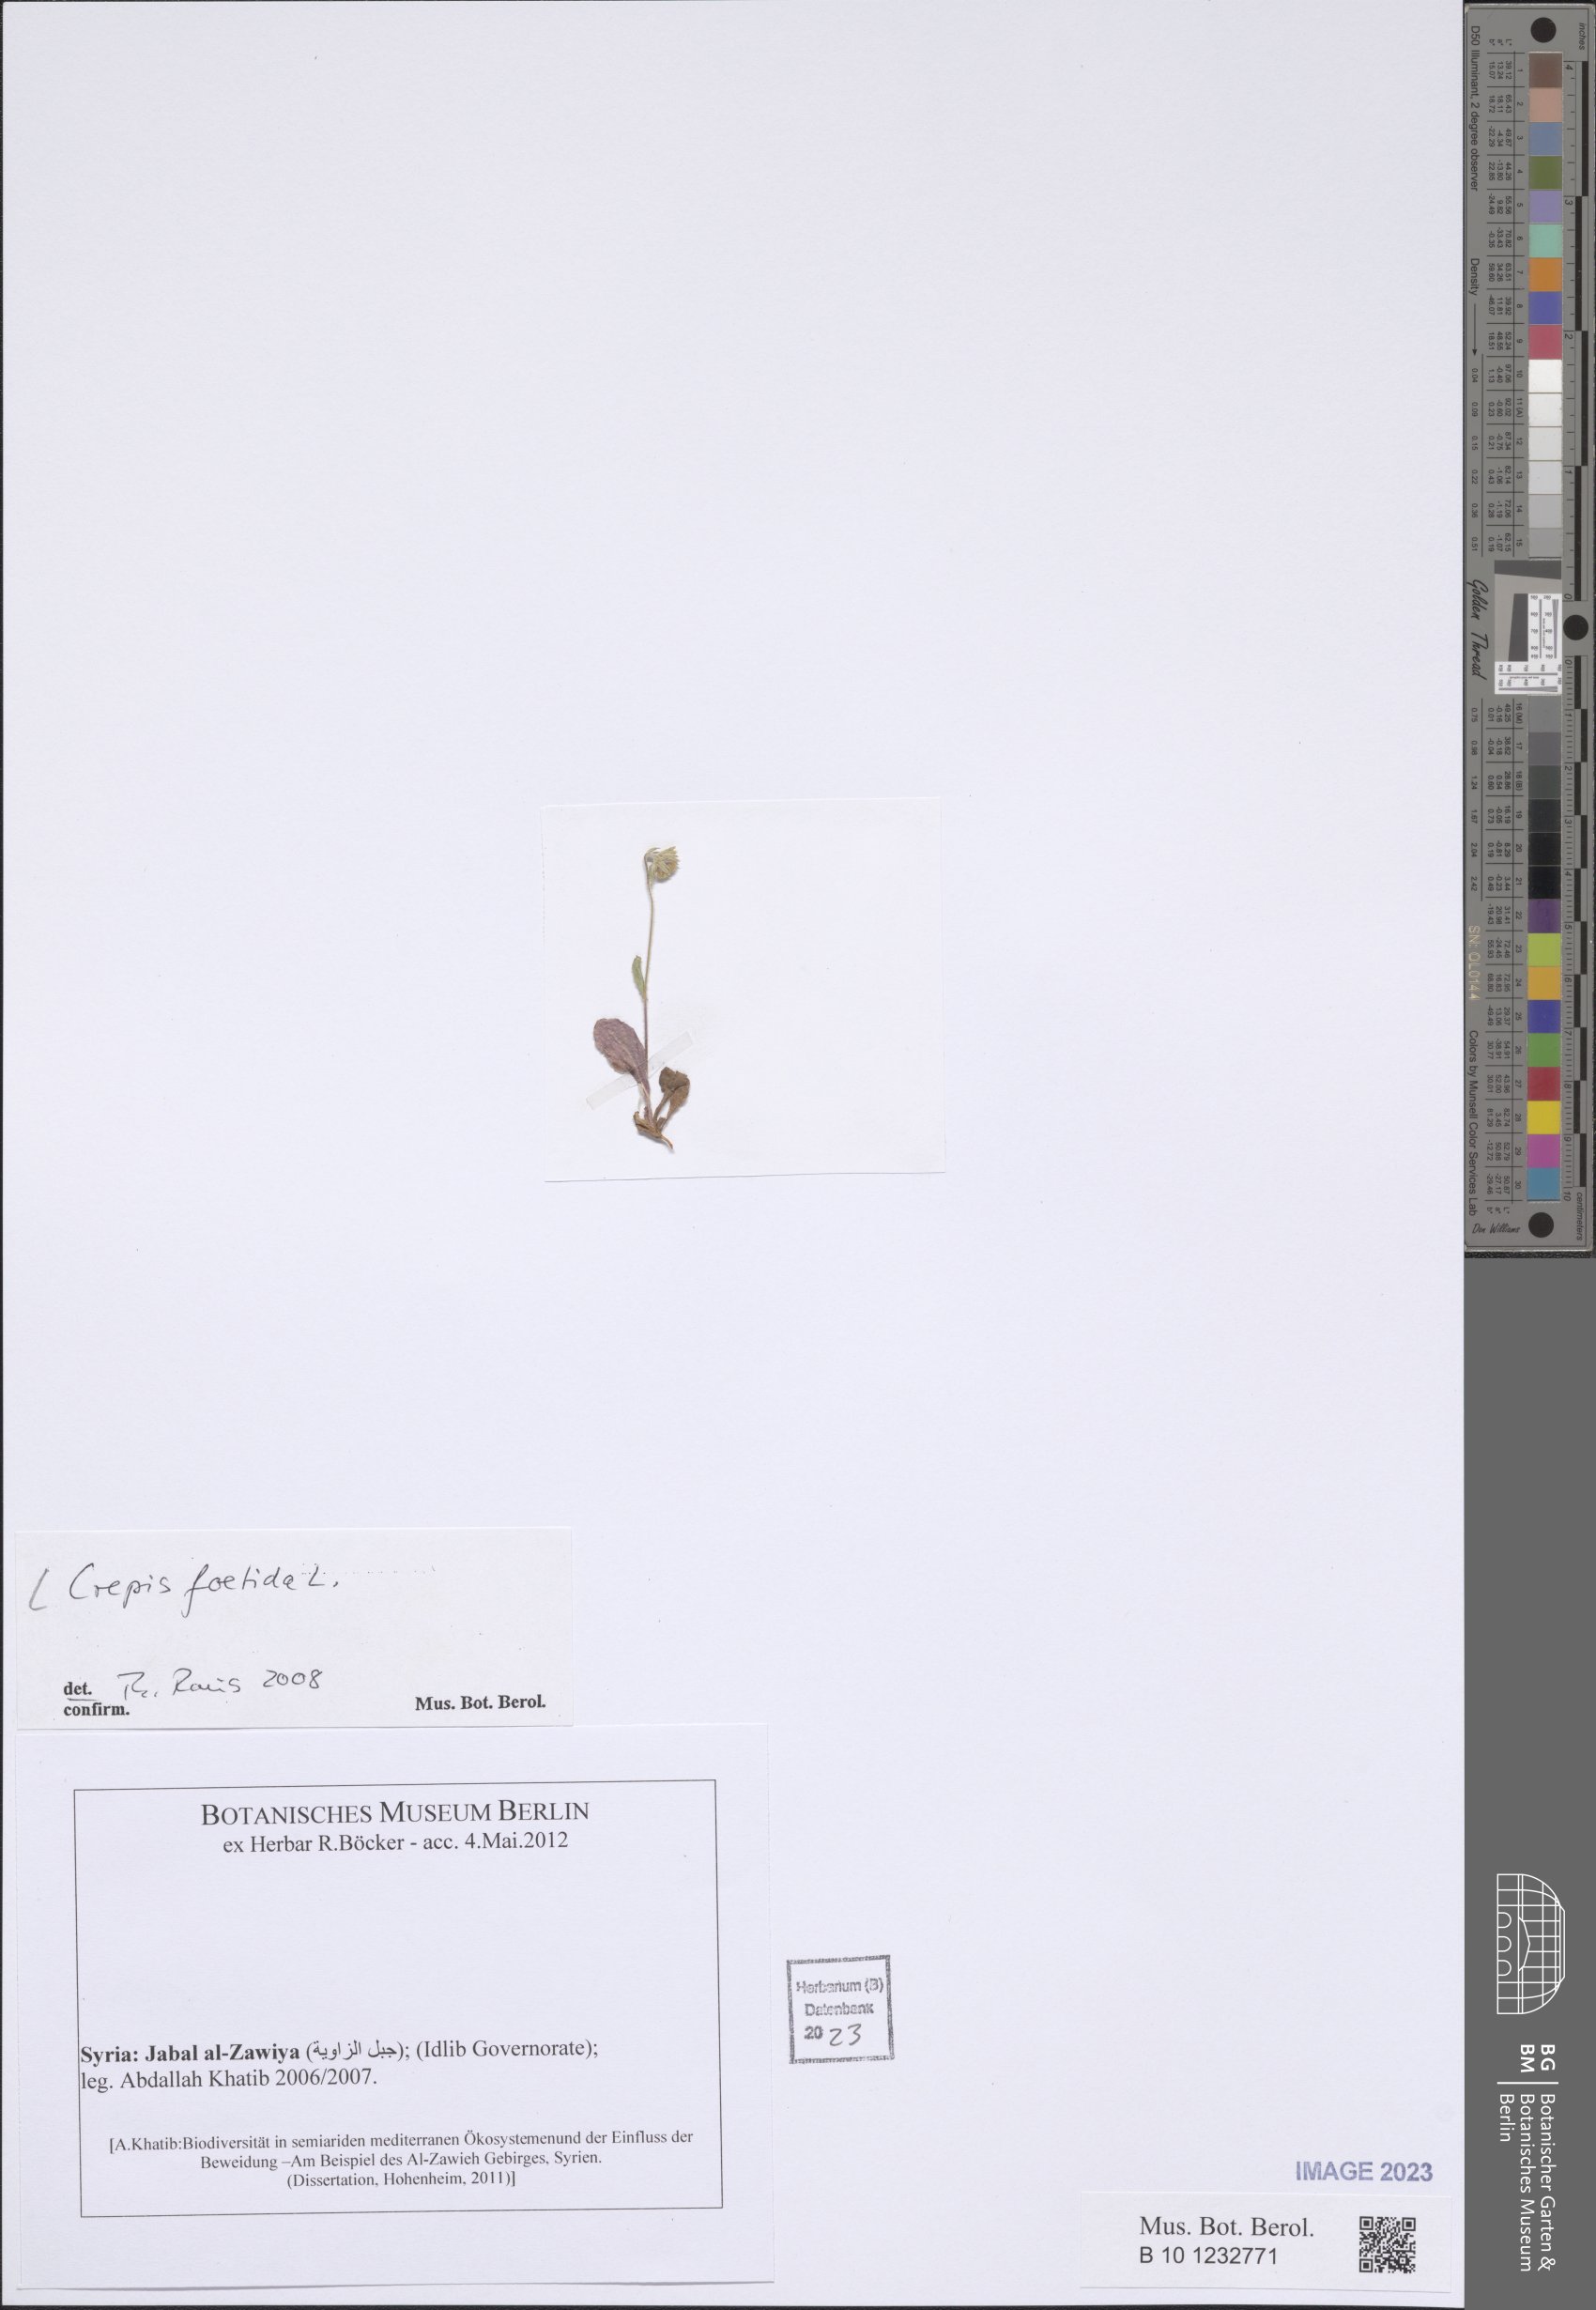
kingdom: Plantae
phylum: Tracheophyta
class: Magnoliopsida
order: Asterales
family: Asteraceae
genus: Crepis
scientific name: Crepis foetida
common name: Stinking hawk's-beard
